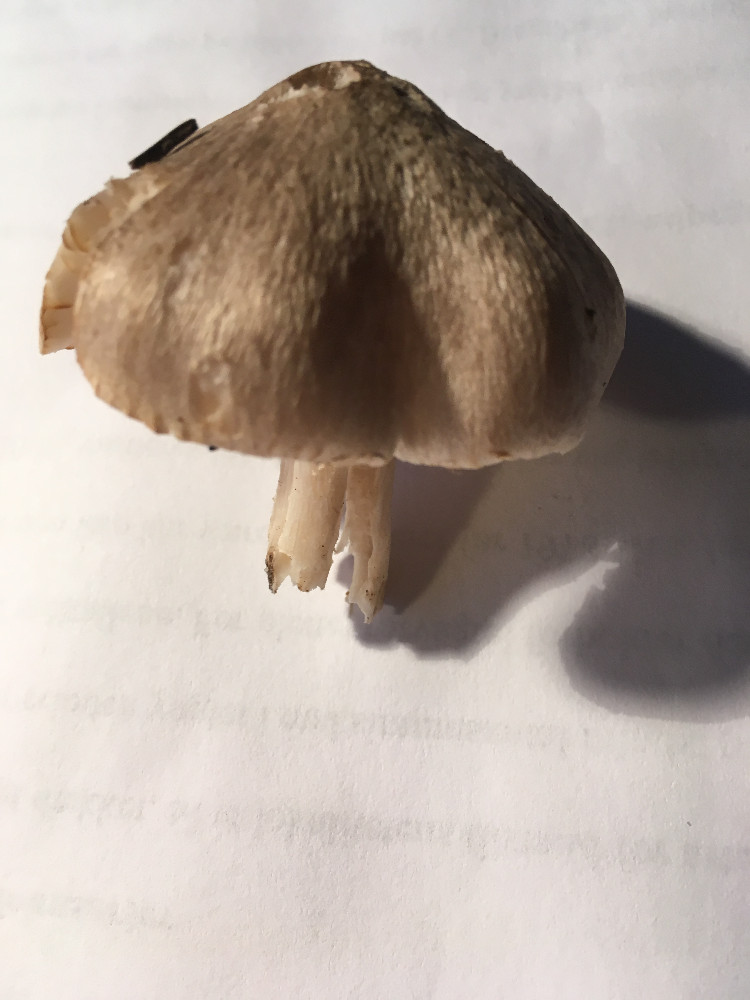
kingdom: Fungi
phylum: Basidiomycota
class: Agaricomycetes
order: Agaricales
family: Tricholomataceae
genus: Tricholoma
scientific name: Tricholoma scalpturatum
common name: gulplettet ridderhat
